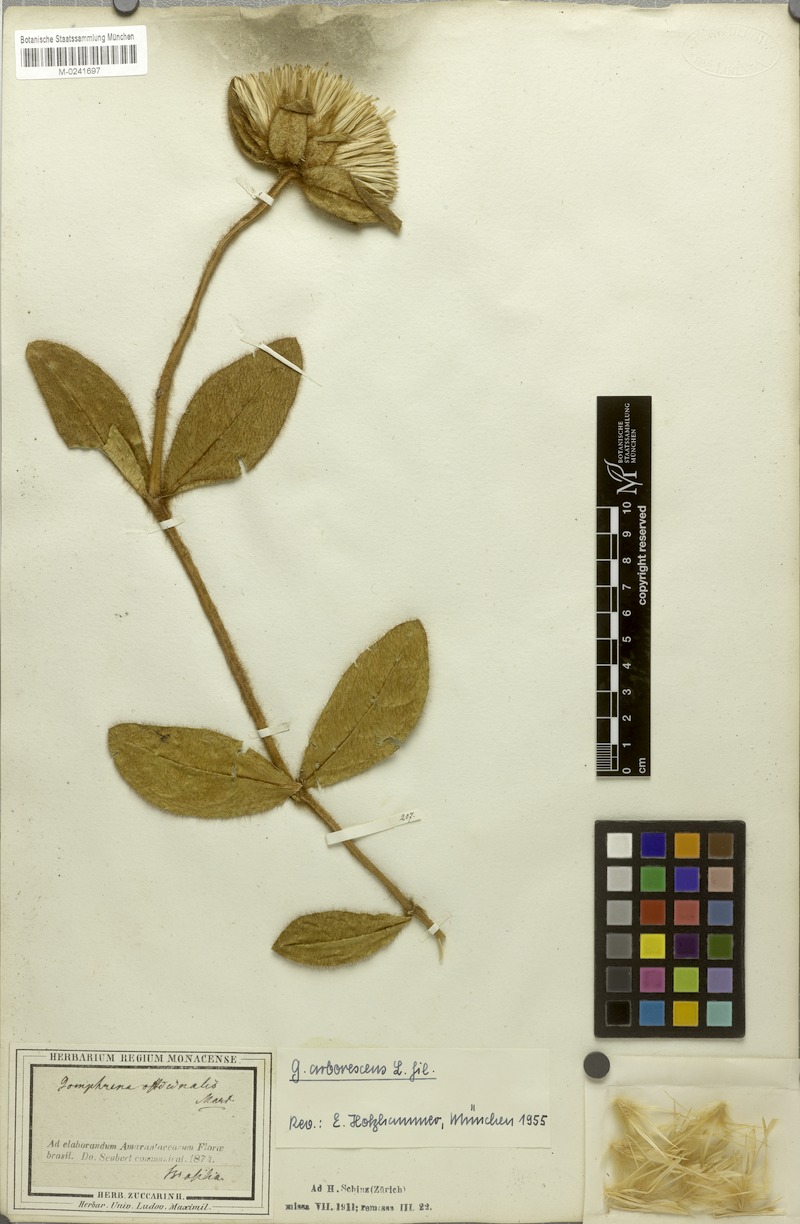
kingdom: Plantae
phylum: Tracheophyta
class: Magnoliopsida
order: Caryophyllales
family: Amaranthaceae
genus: Gomphrena
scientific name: Gomphrena arborescens
